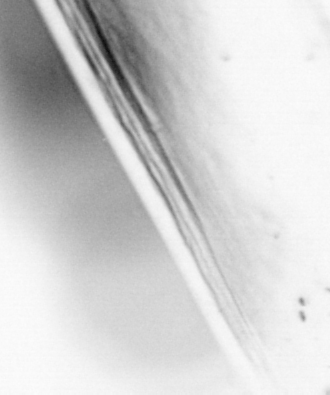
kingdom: Animalia
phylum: Chordata
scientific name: Chordata
